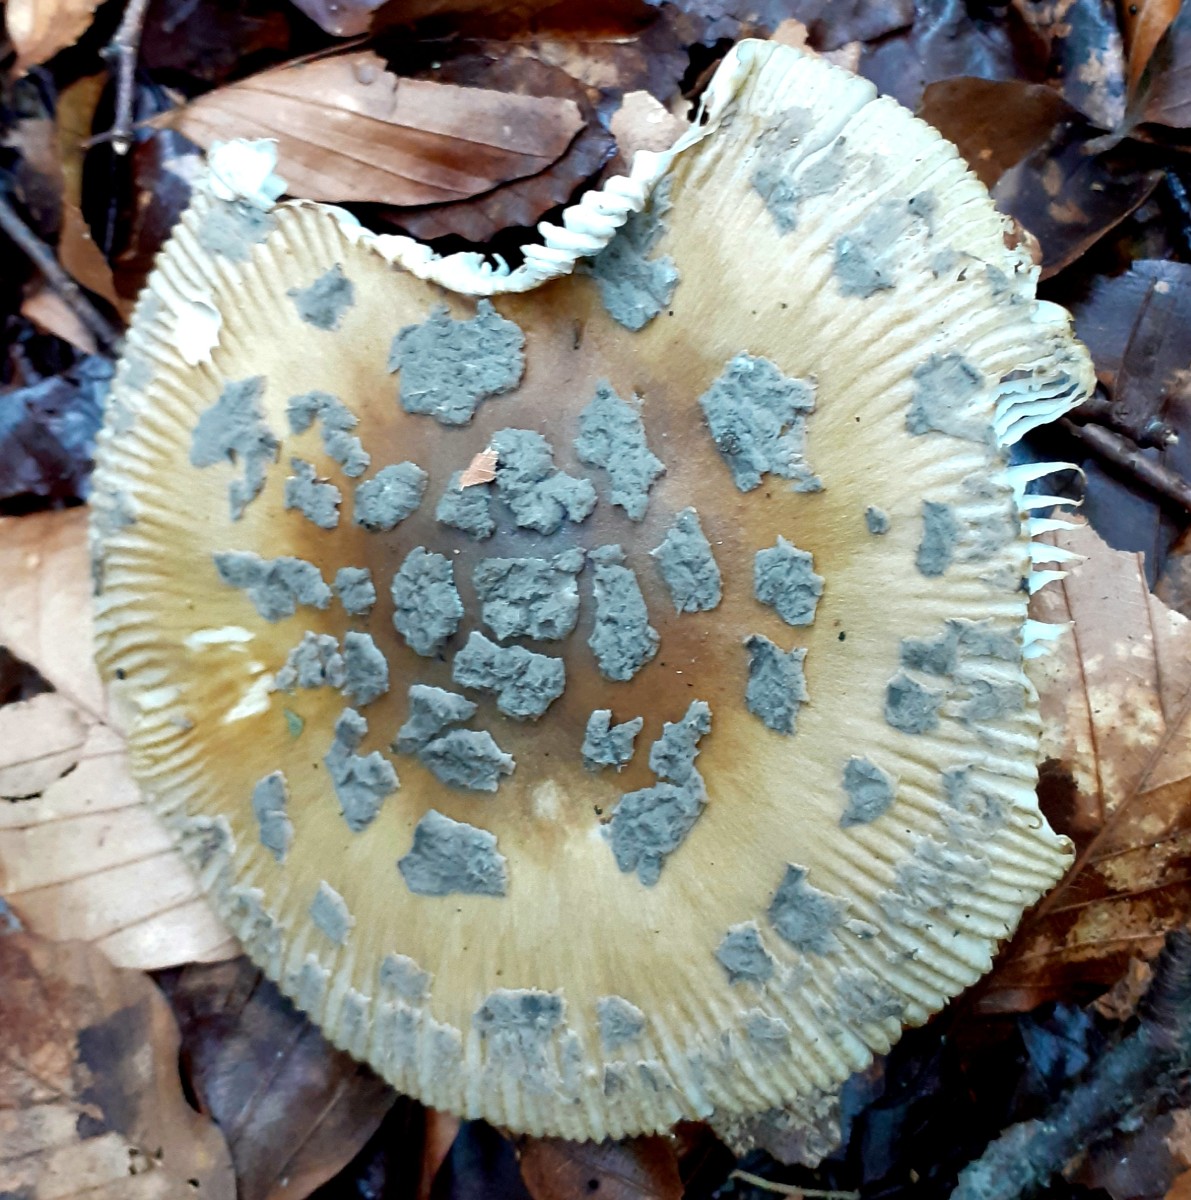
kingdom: Fungi
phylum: Basidiomycota
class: Agaricomycetes
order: Agaricales
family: Amanitaceae
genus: Amanita
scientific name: Amanita ceciliae
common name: stor kam-fluesvamp
